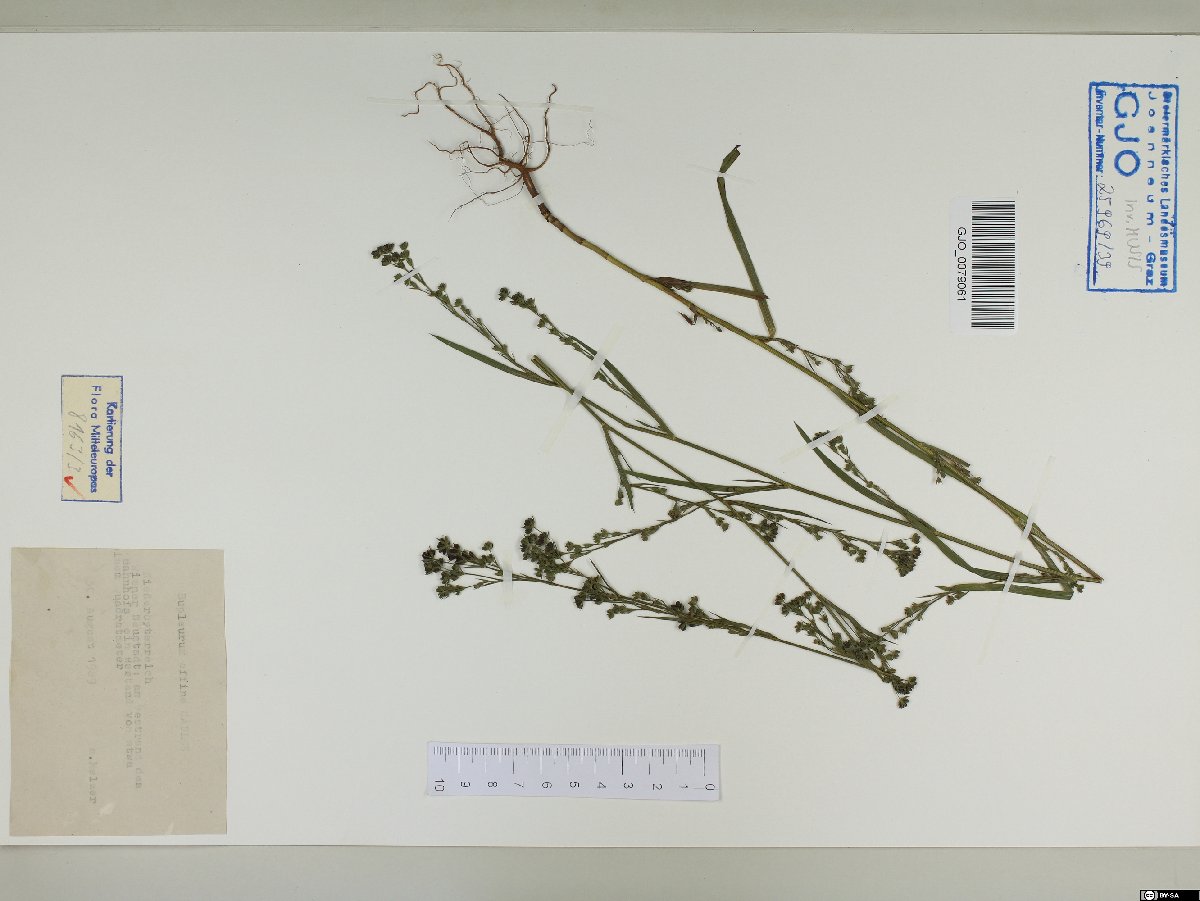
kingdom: Plantae
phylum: Tracheophyta
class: Magnoliopsida
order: Apiales
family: Apiaceae
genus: Bupleurum
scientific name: Bupleurum affine
